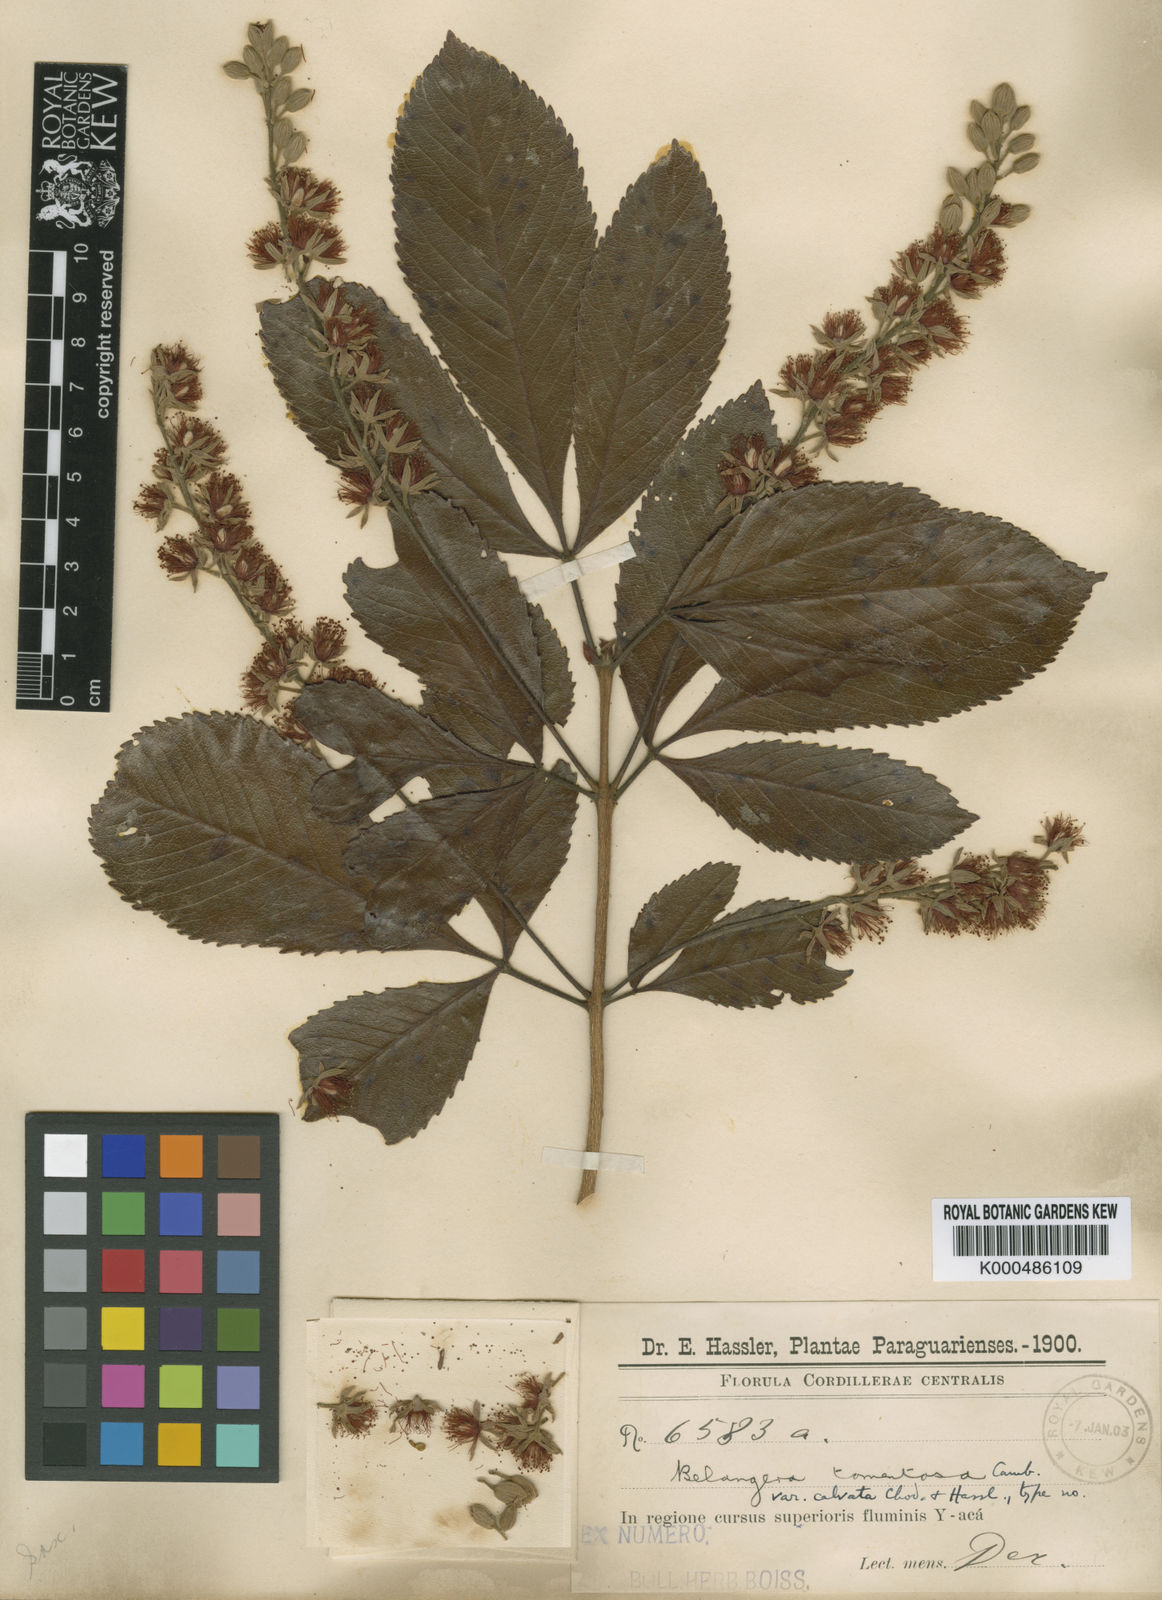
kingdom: Plantae
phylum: Tracheophyta
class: Magnoliopsida
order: Oxalidales
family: Cunoniaceae
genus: Lamanonia
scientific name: Lamanonia ternata
